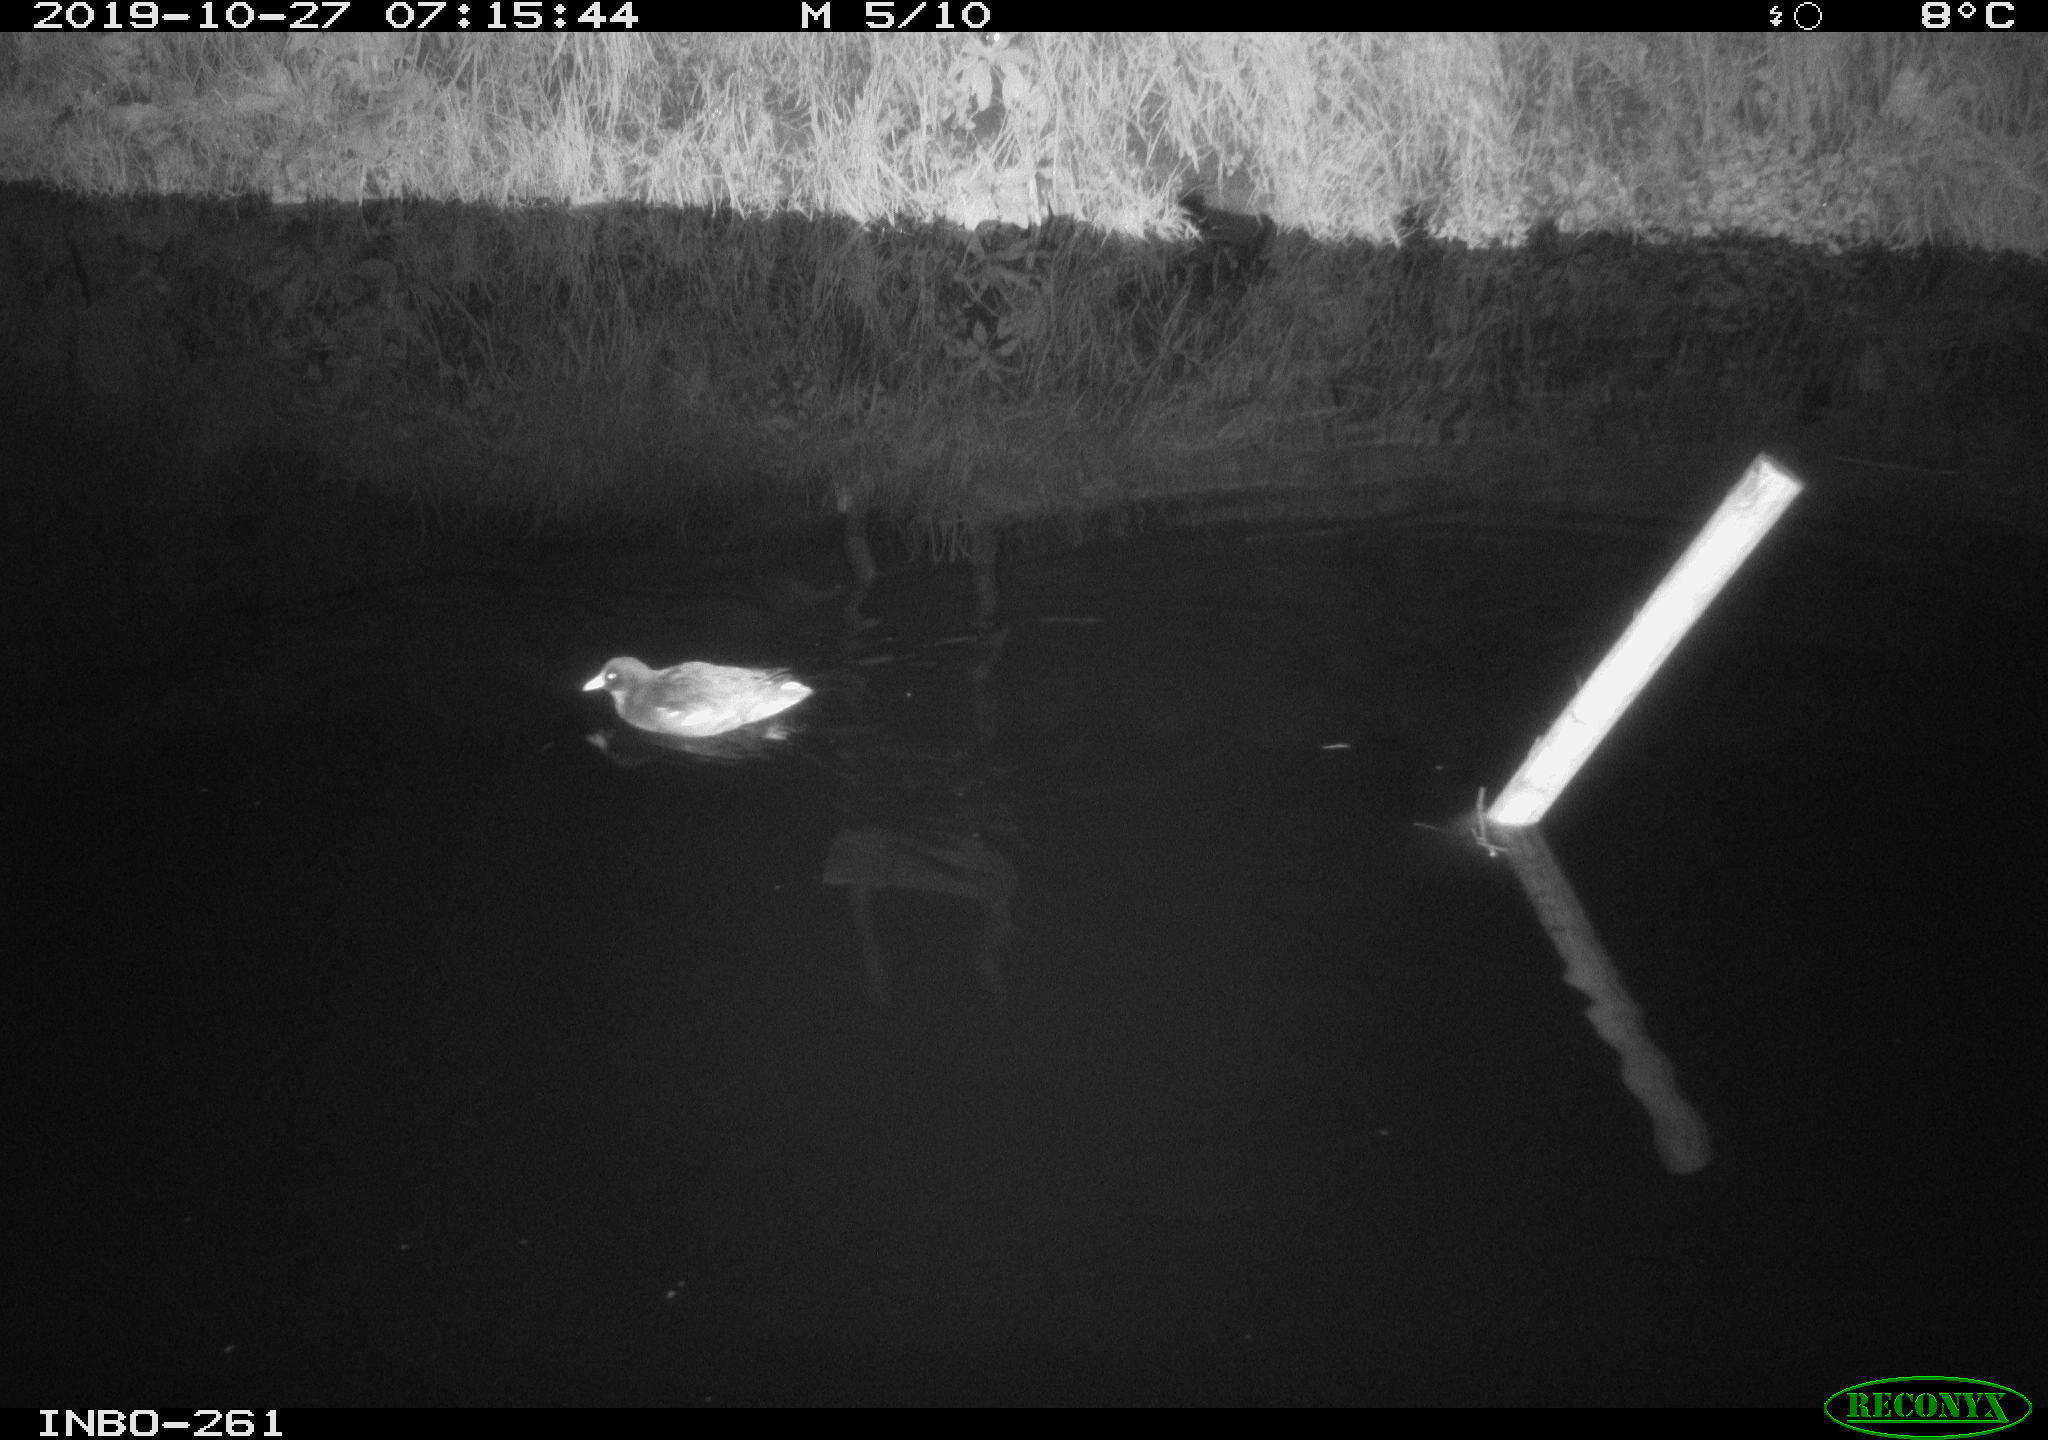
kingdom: Animalia
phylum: Chordata
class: Aves
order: Gruiformes
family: Rallidae
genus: Gallinula
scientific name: Gallinula chloropus
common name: Common moorhen
